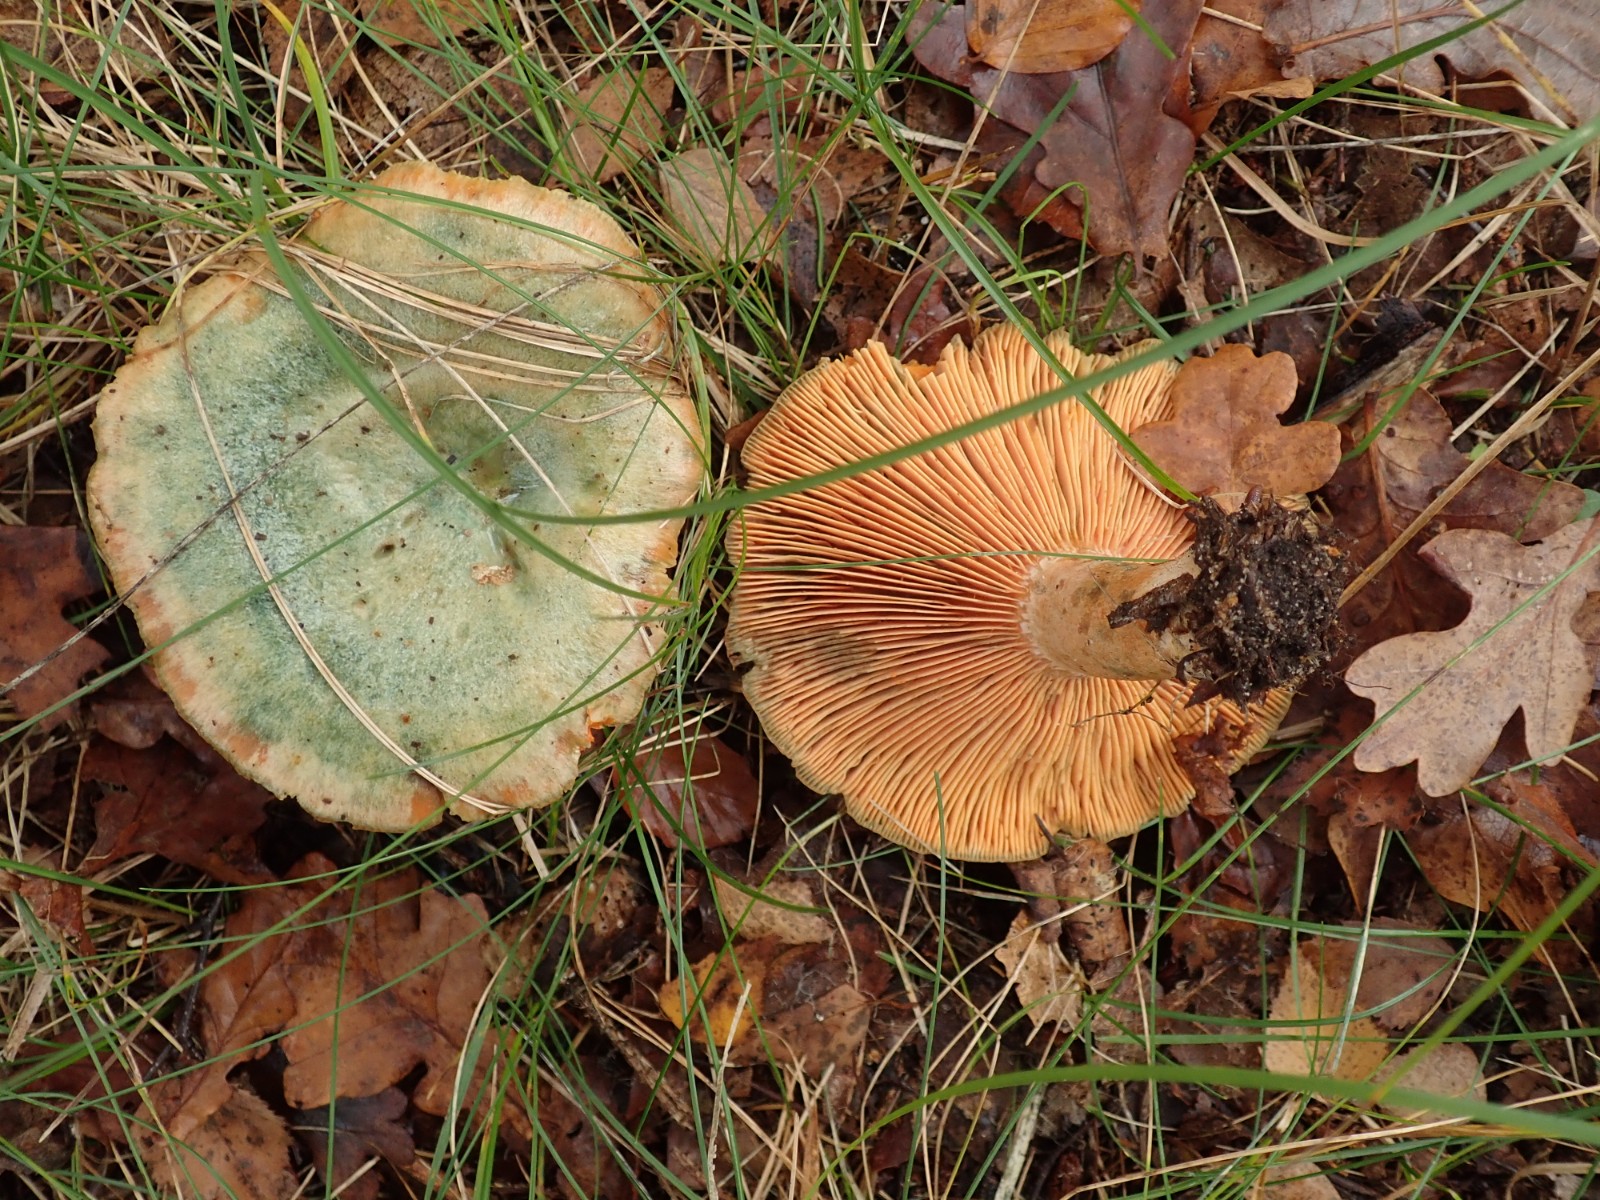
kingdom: Fungi
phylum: Basidiomycota
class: Agaricomycetes
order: Russulales
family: Russulaceae
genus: Lactarius
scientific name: Lactarius deliciosus
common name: velsmagende mælkehat
